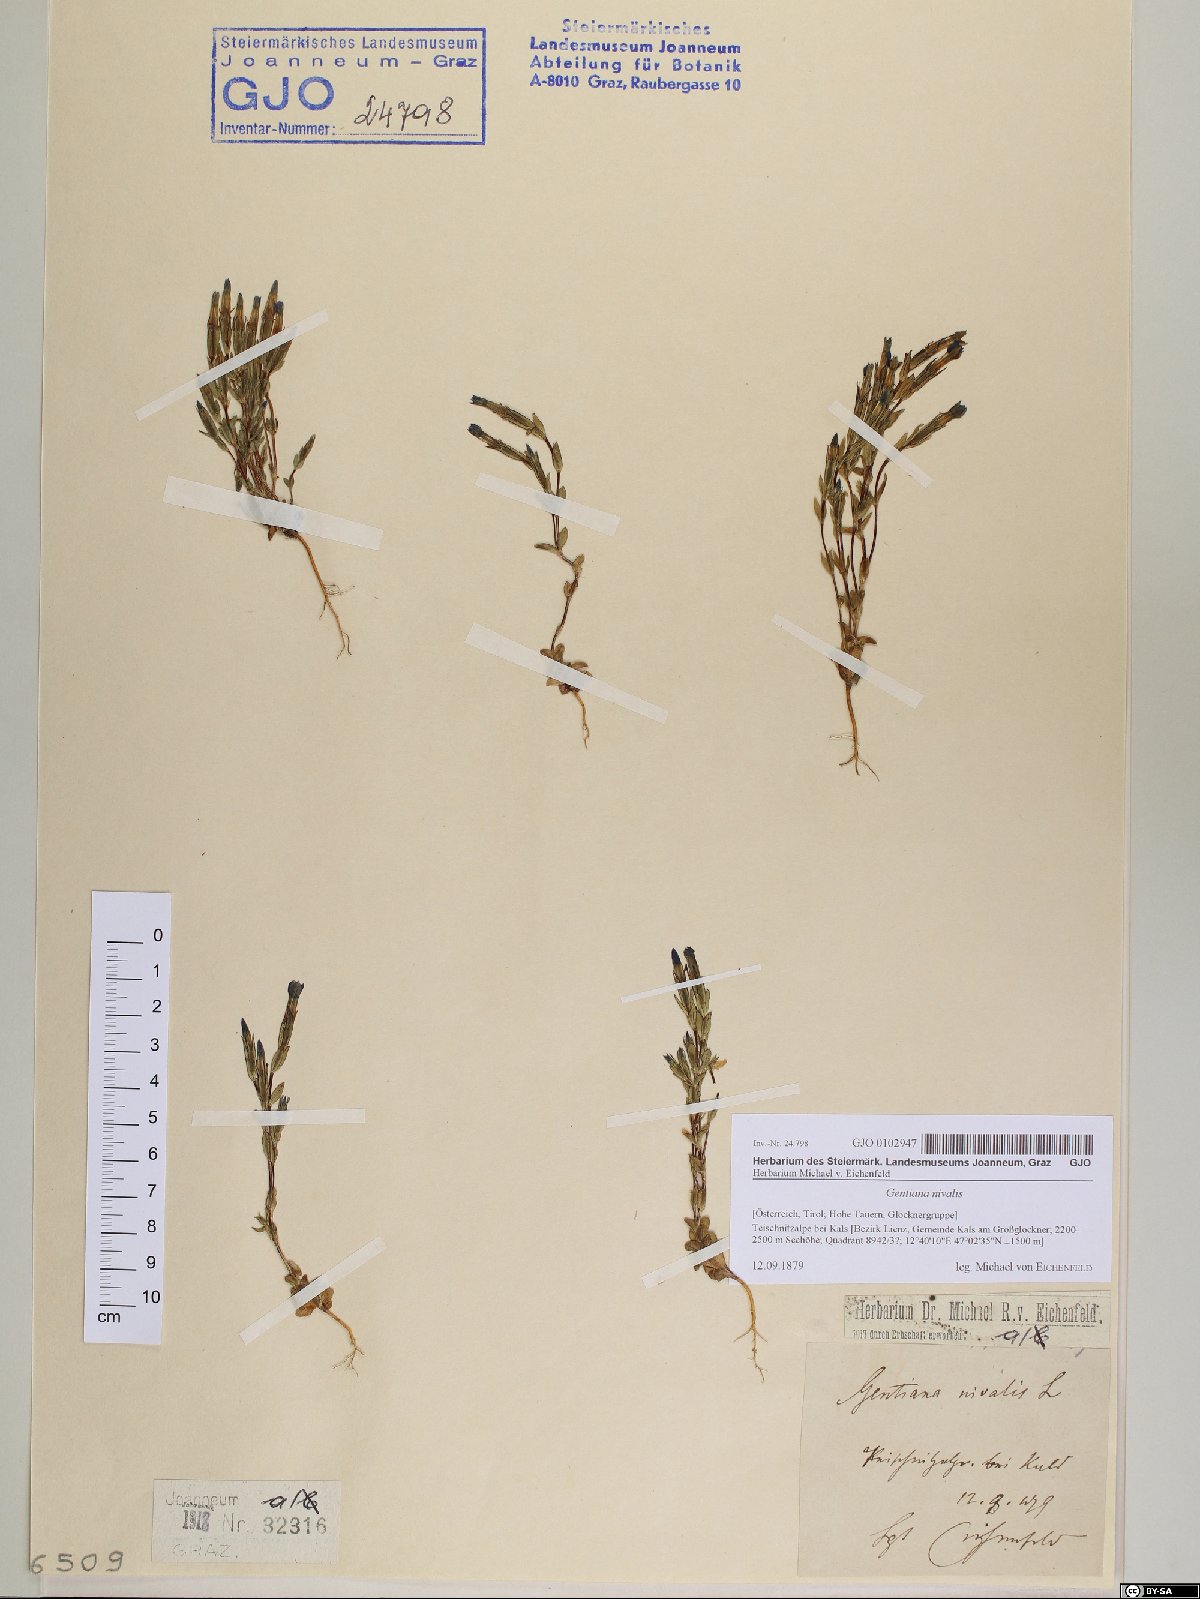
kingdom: Plantae
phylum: Tracheophyta
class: Magnoliopsida
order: Gentianales
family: Gentianaceae
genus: Gentiana
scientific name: Gentiana nivalis
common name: Alpine gentian
